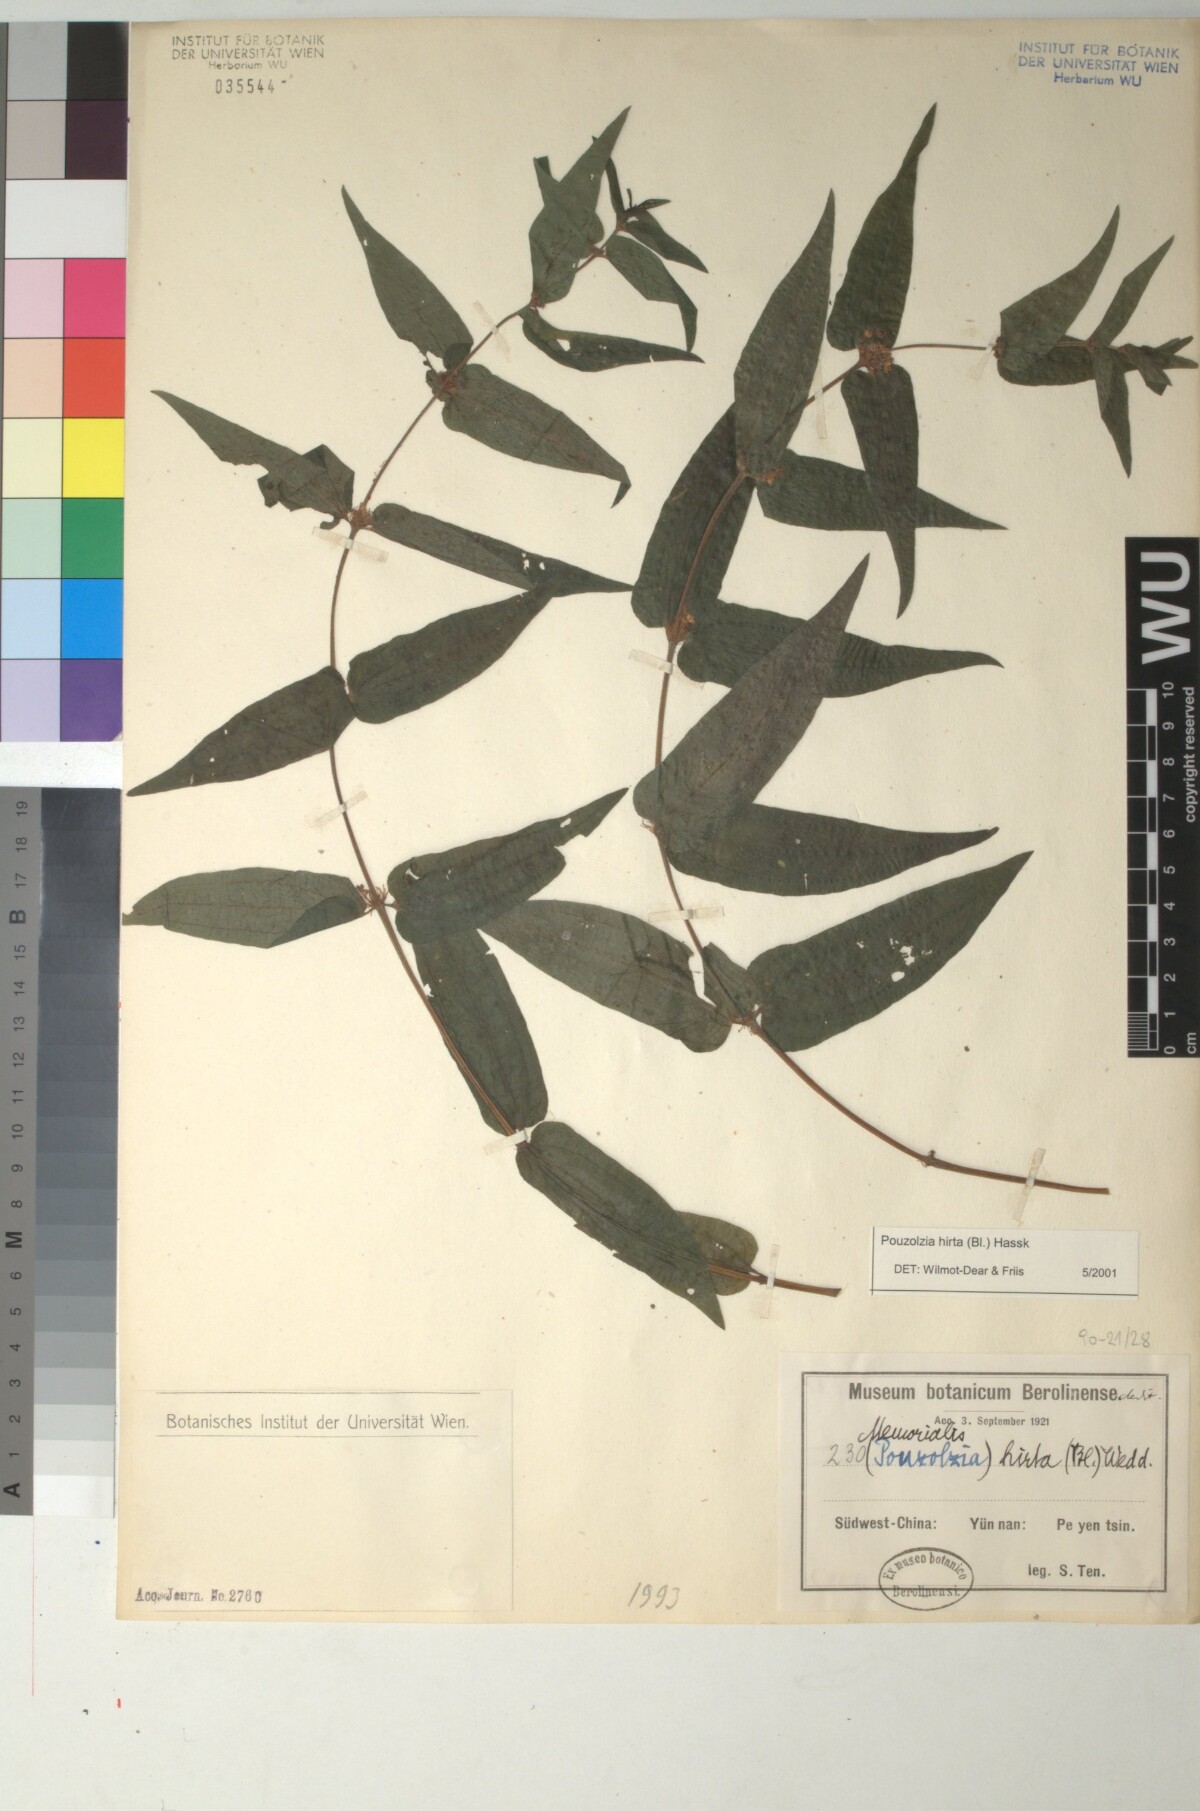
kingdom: Plantae
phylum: Tracheophyta
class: Magnoliopsida
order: Rosales
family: Urticaceae
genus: Gonostegia
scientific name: Gonostegia triandra
